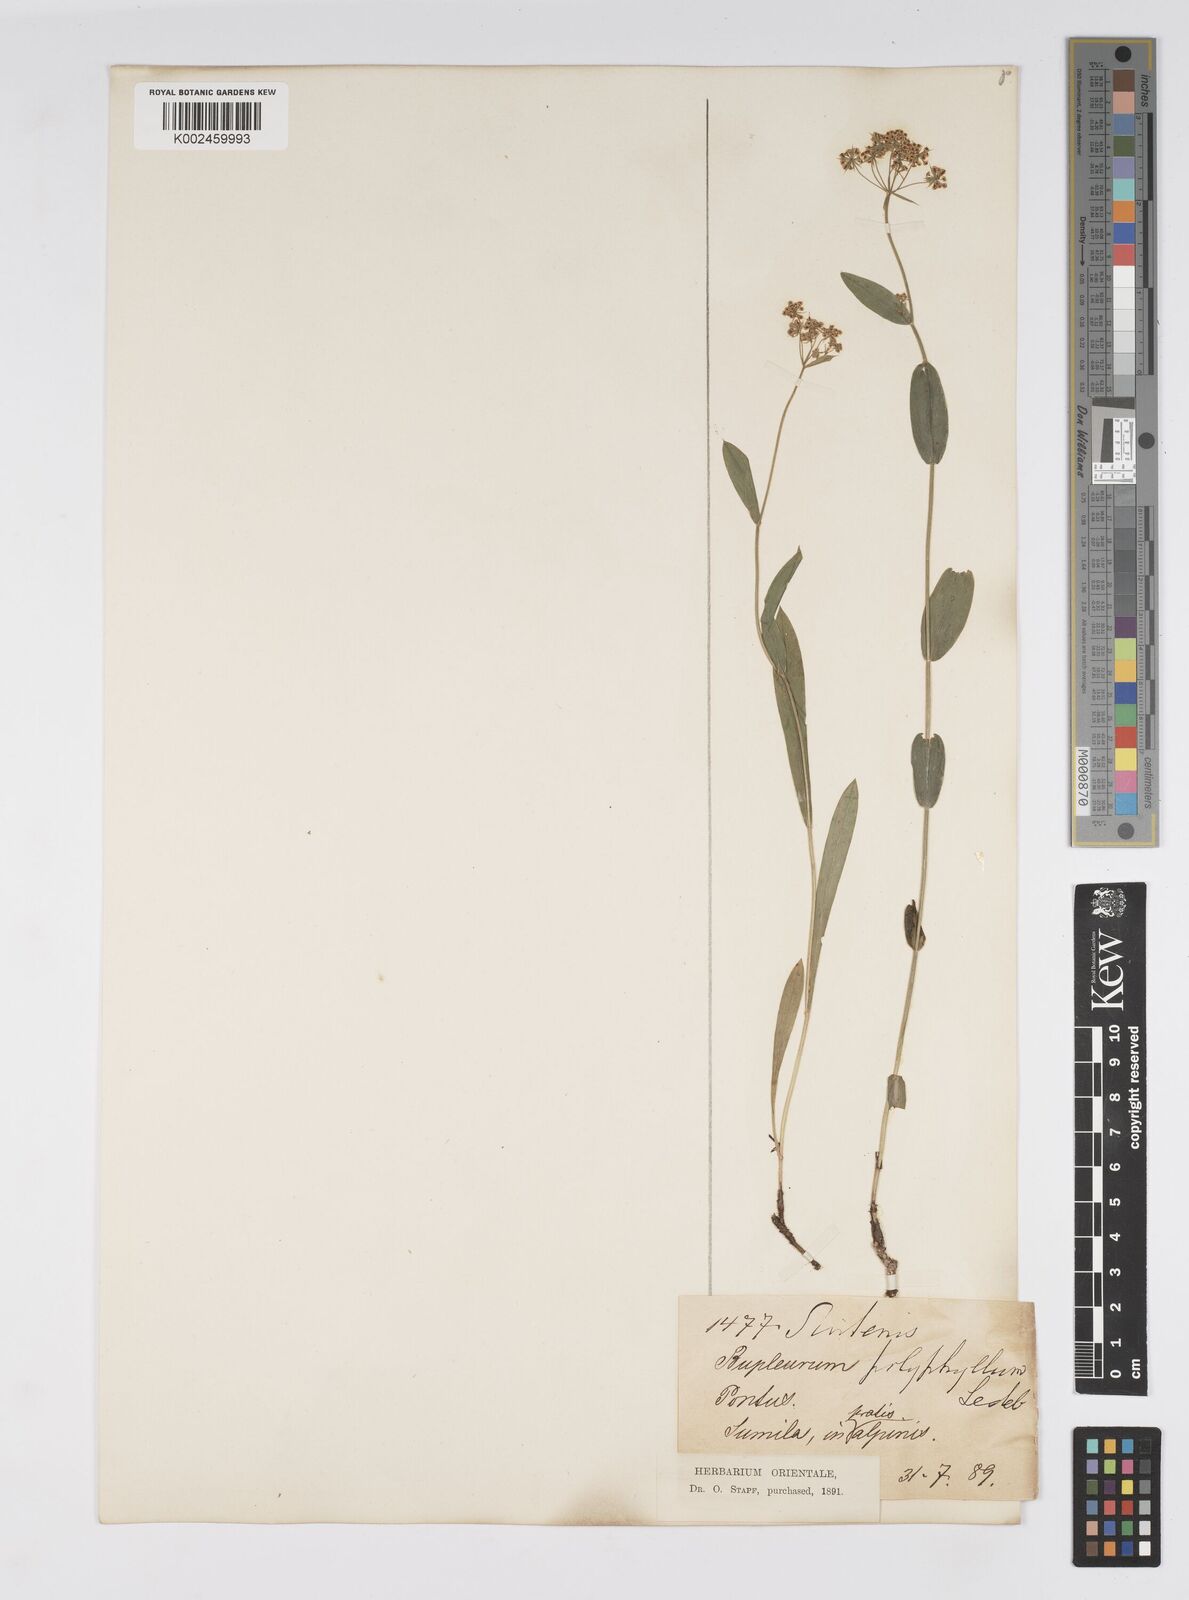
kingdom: Plantae
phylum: Tracheophyta
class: Magnoliopsida
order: Apiales
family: Apiaceae
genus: Bupleurum
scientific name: Bupleurum falcatum
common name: Sickle-leaved hare's-ear
